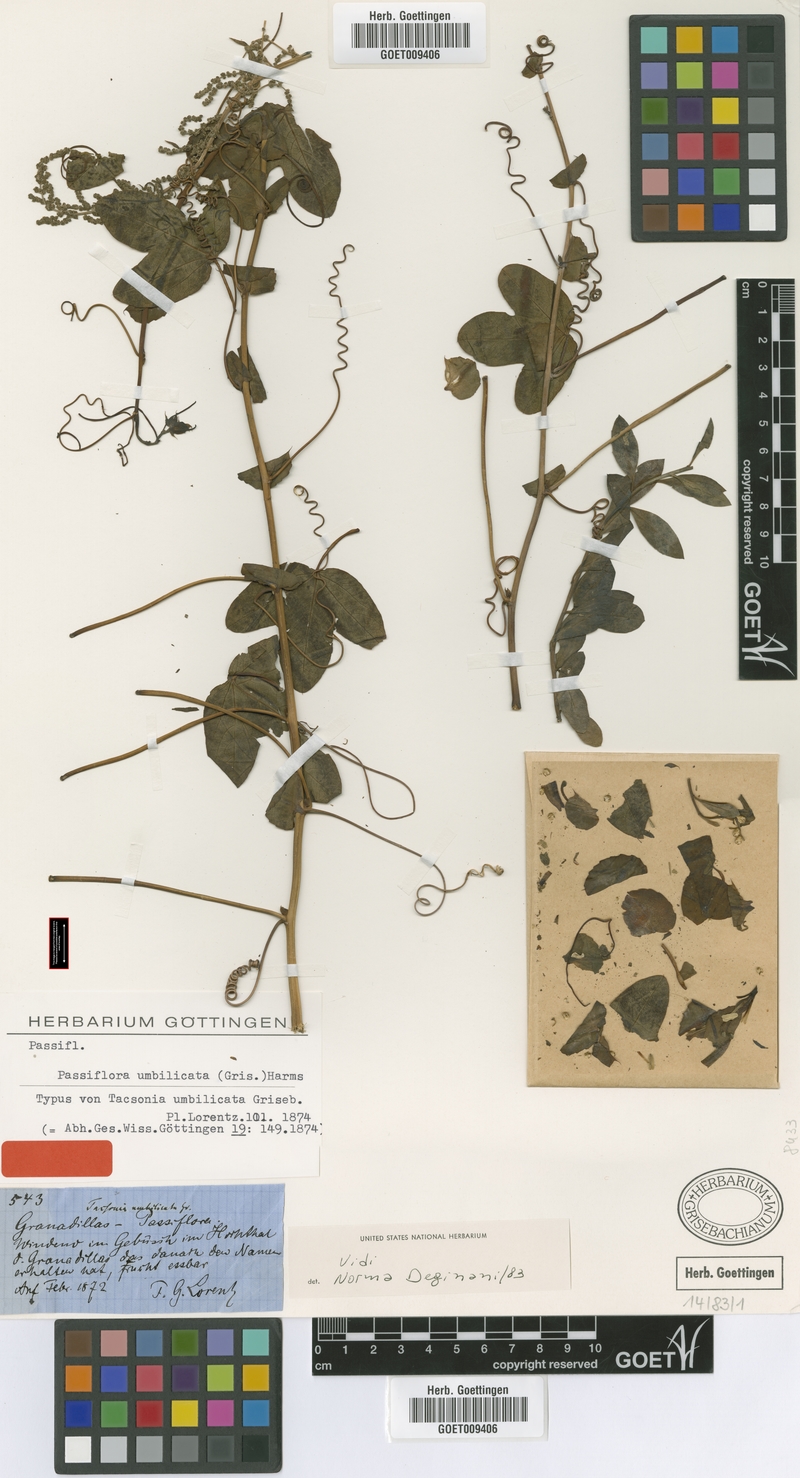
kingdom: Plantae
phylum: Tracheophyta
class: Magnoliopsida
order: Malpighiales
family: Passifloraceae
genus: Passiflora
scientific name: Passiflora umbilicata
